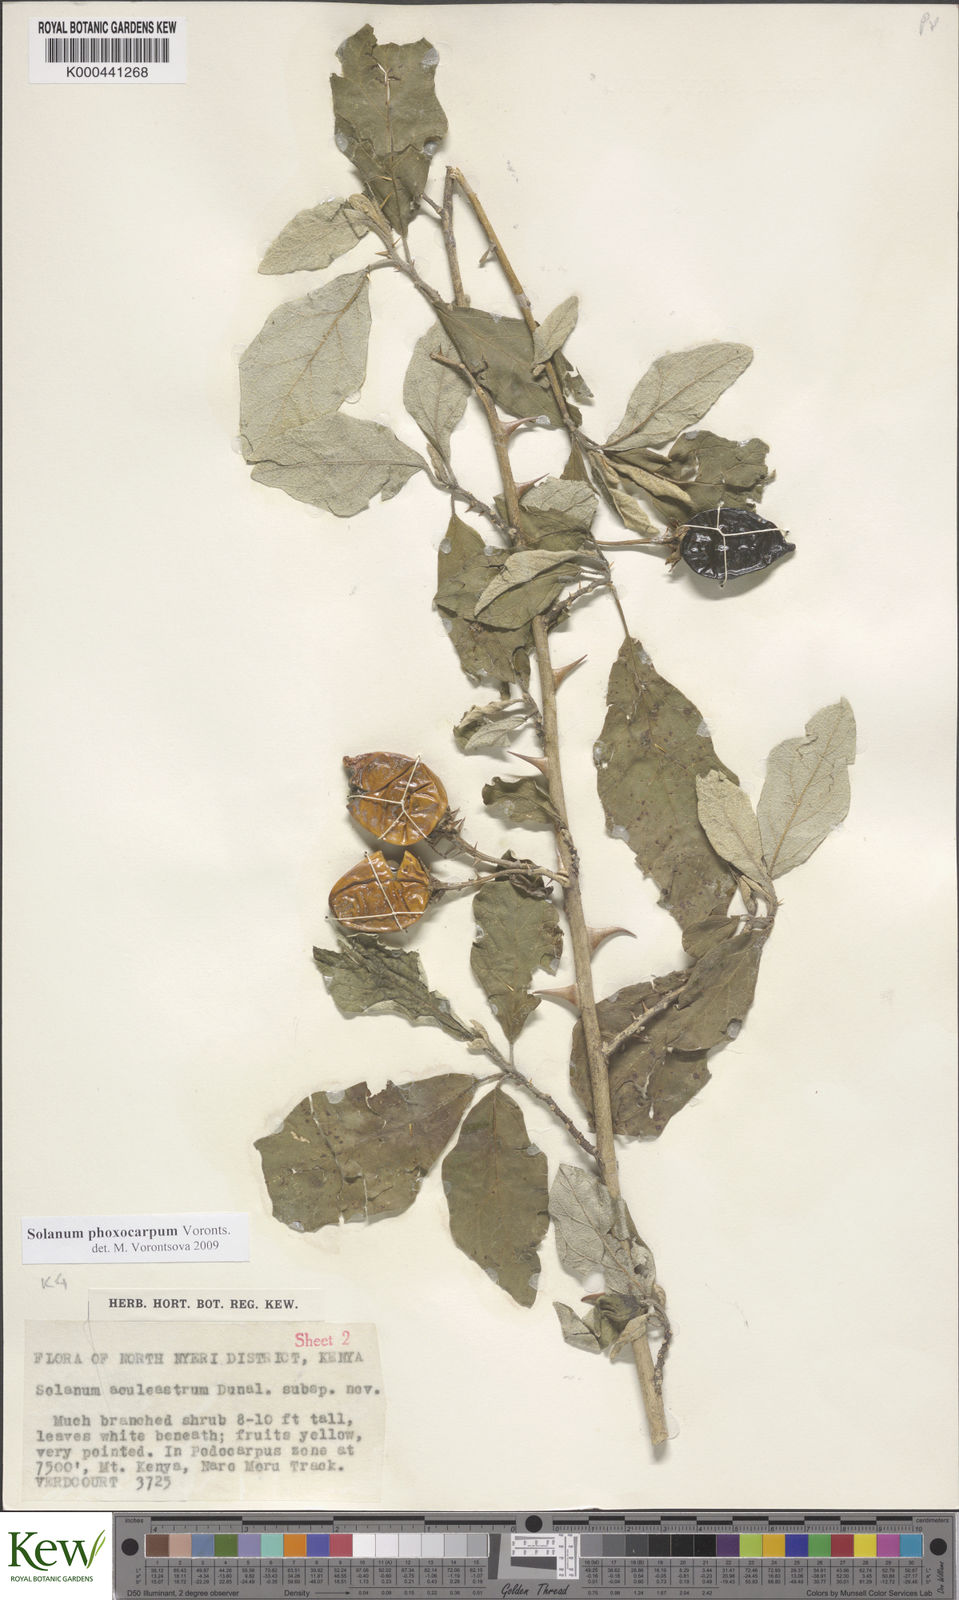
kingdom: Plantae
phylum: Tracheophyta
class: Magnoliopsida
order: Solanales
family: Solanaceae
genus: Solanum
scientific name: Solanum phoxocarpum
